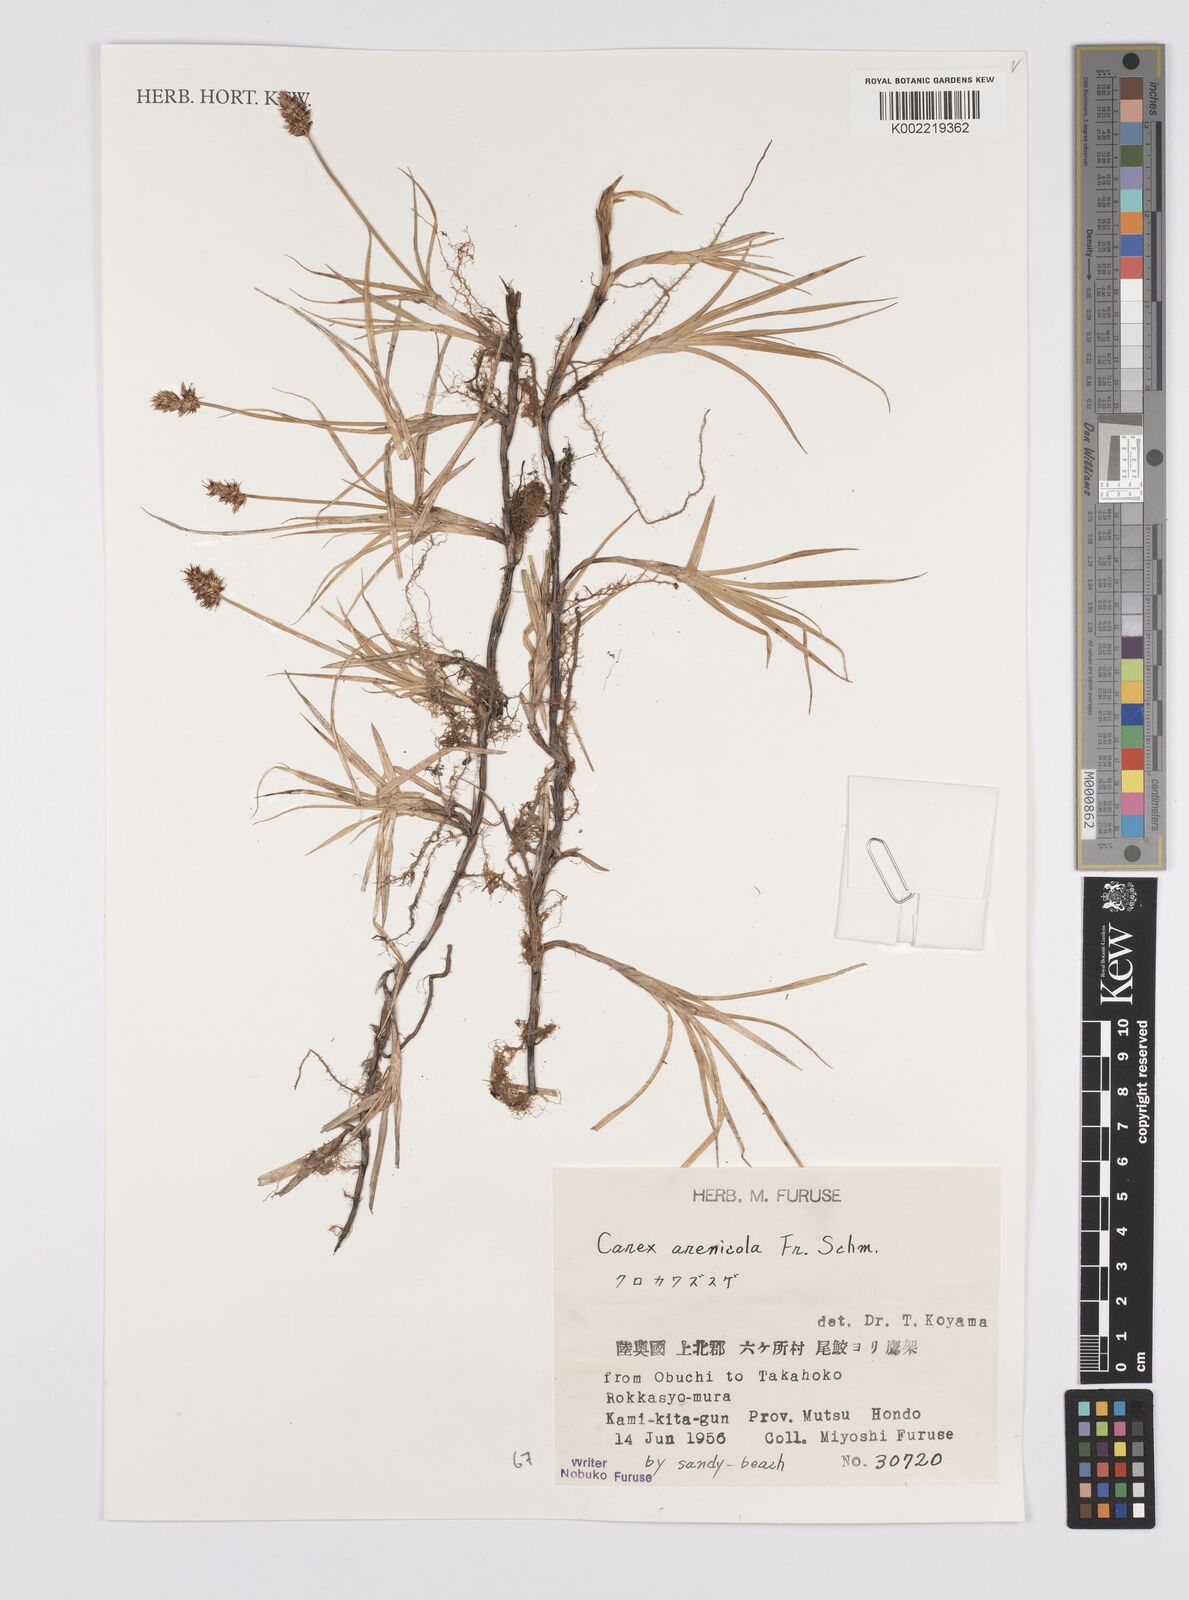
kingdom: Plantae
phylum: Tracheophyta
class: Liliopsida
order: Poales
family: Cyperaceae
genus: Carex
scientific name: Carex arenicola
